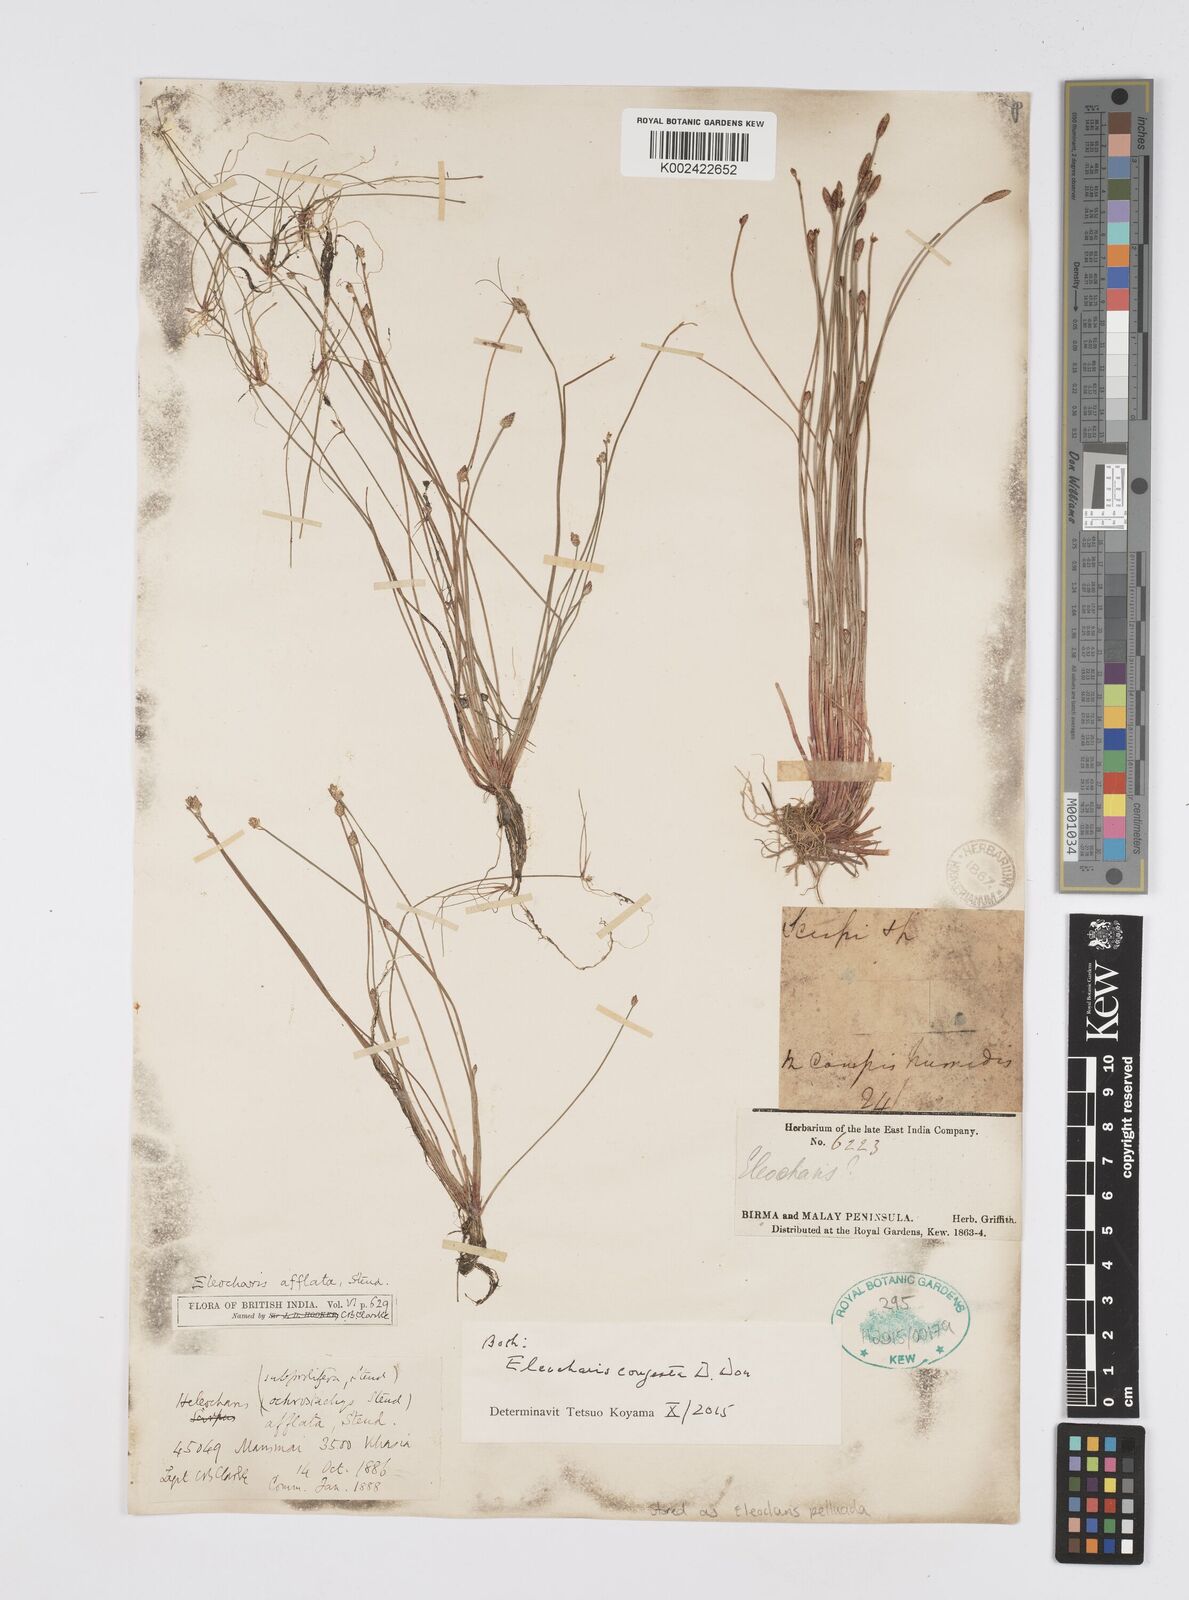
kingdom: Plantae
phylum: Tracheophyta
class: Liliopsida
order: Poales
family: Cyperaceae
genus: Eleocharis
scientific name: Eleocharis congesta
